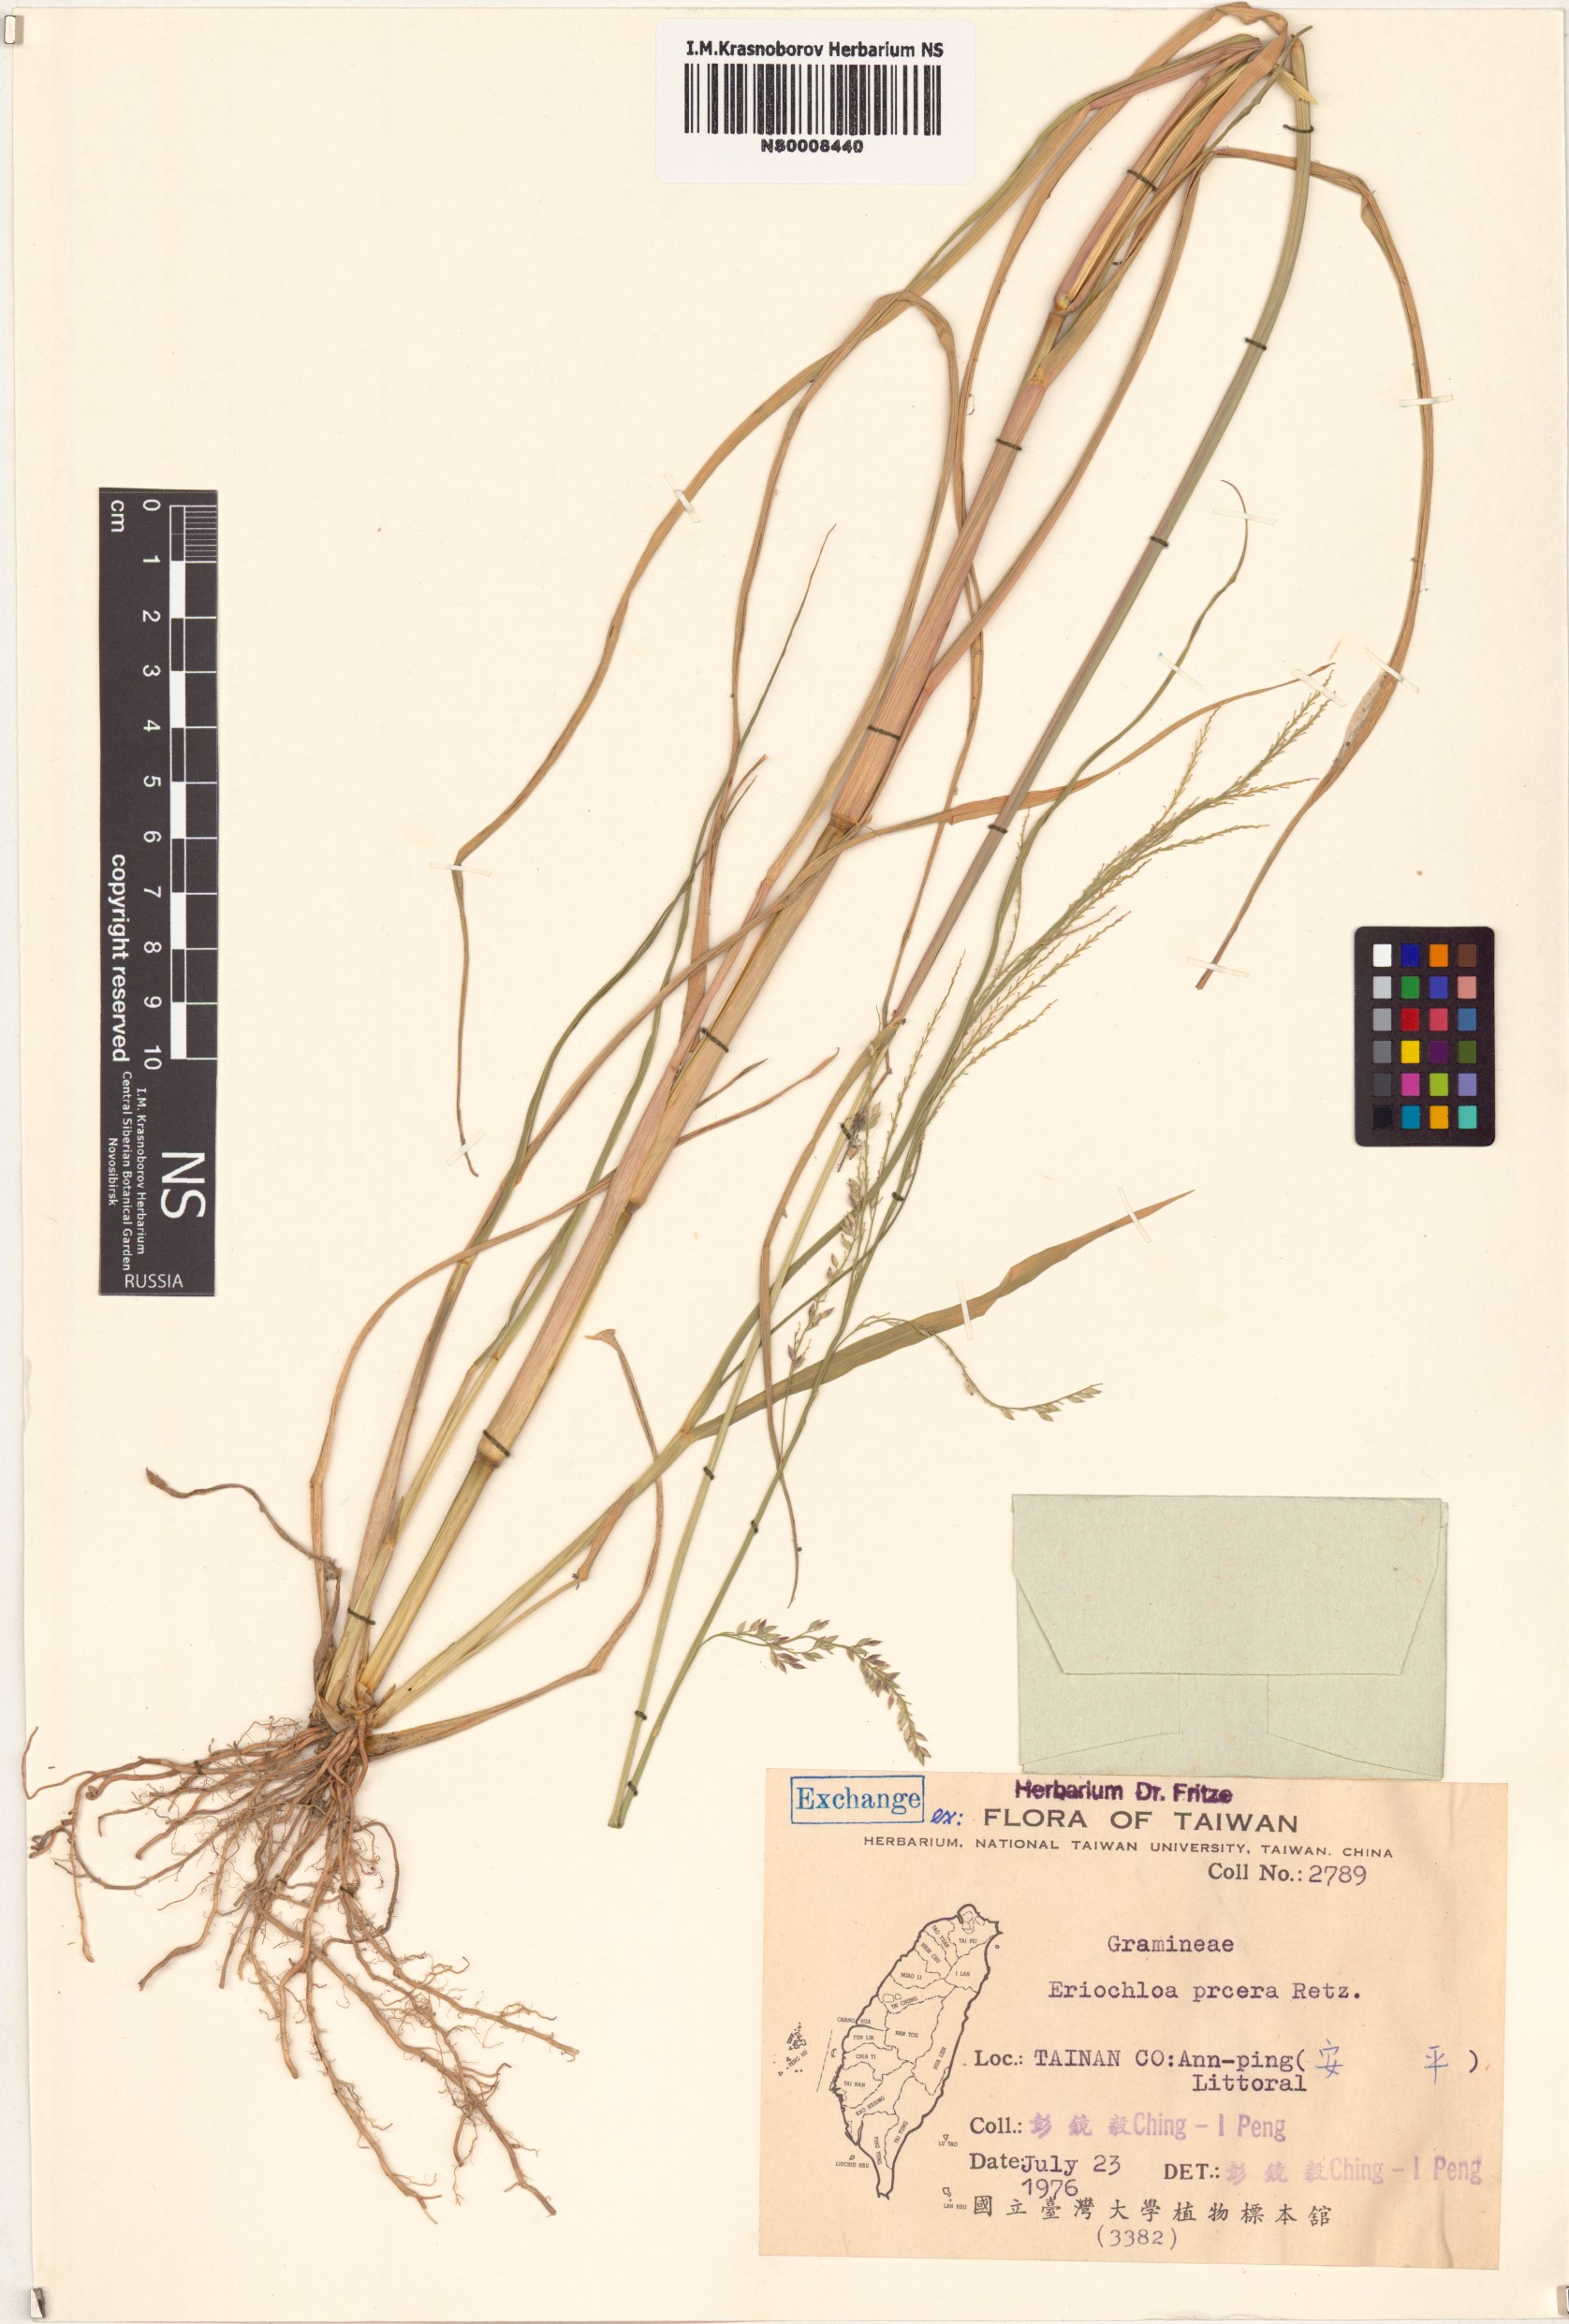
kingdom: Plantae
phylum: Tracheophyta
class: Liliopsida
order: Poales
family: Poaceae
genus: Eriochloa
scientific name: Eriochloa procera
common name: Spring grass
